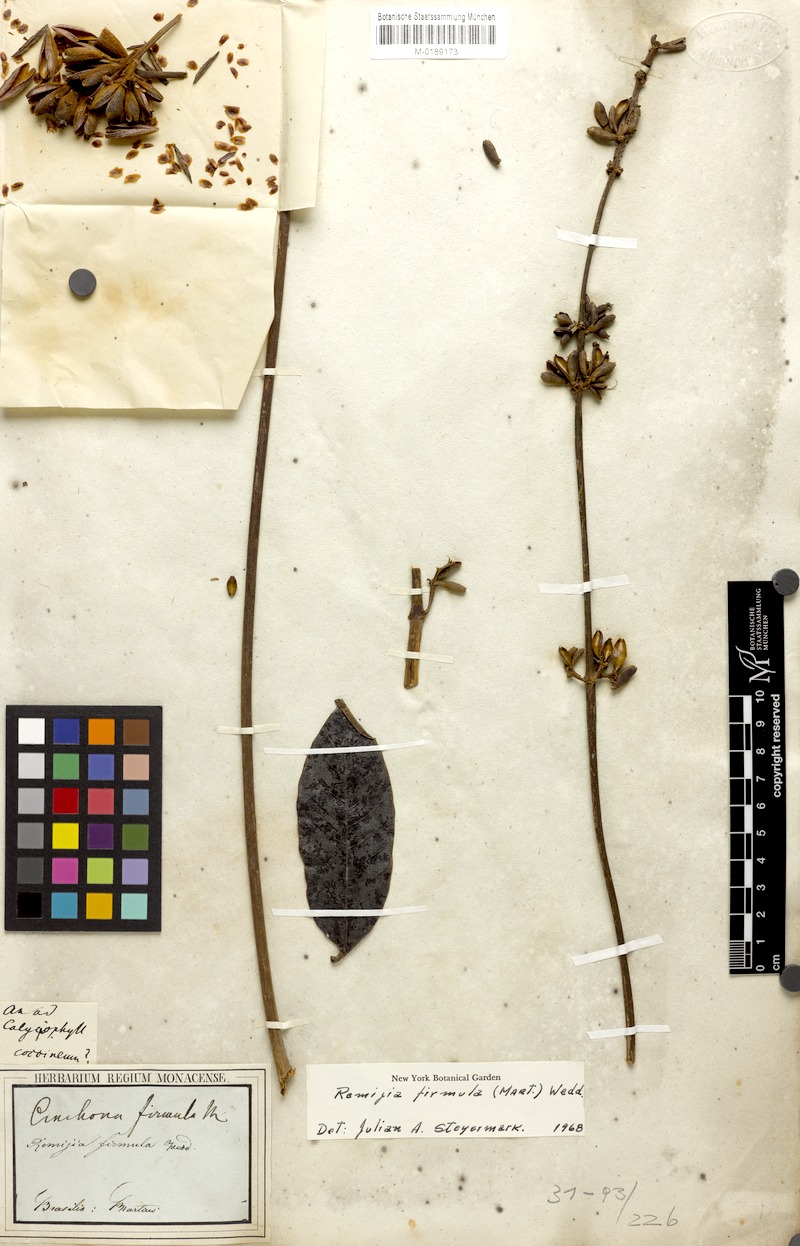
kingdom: Plantae
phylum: Tracheophyta
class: Magnoliopsida
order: Gentianales
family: Rubiaceae
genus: Remijia
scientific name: Remijia firmula
